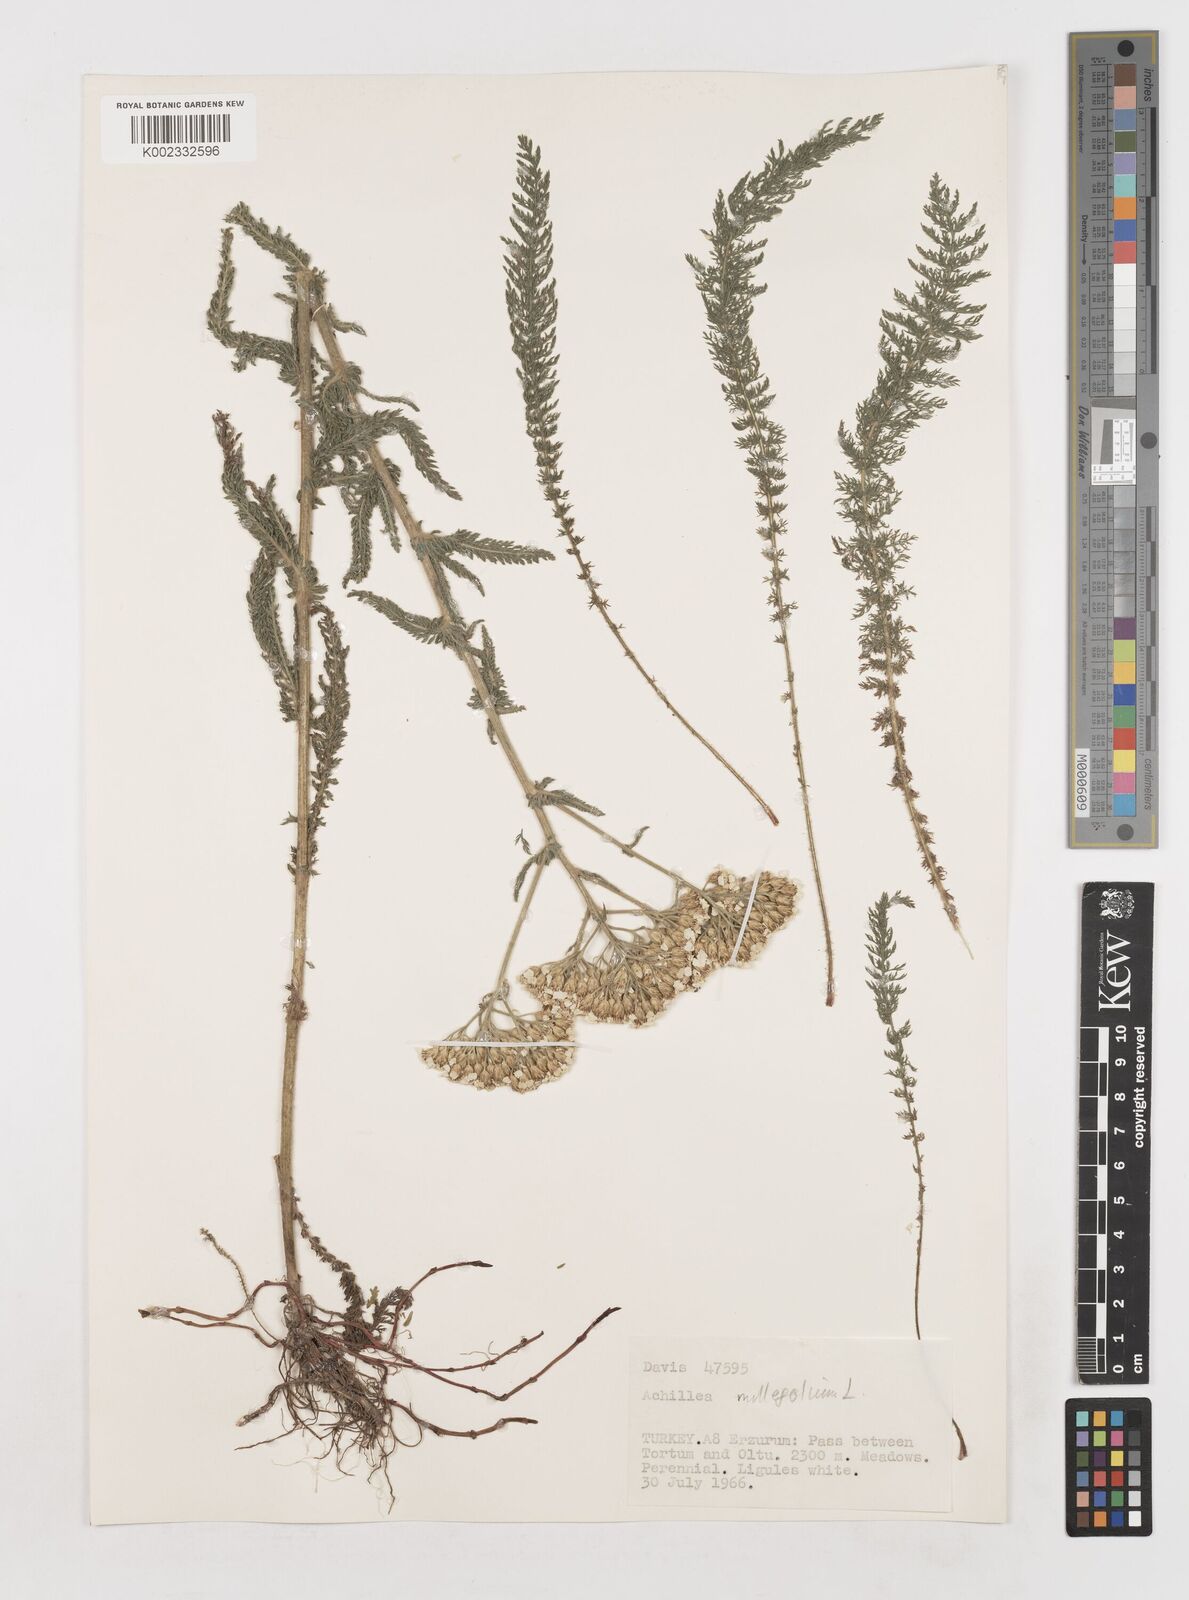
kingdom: Plantae
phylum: Tracheophyta
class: Magnoliopsida
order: Asterales
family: Asteraceae
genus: Achillea
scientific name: Achillea millefolium
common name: Yarrow
